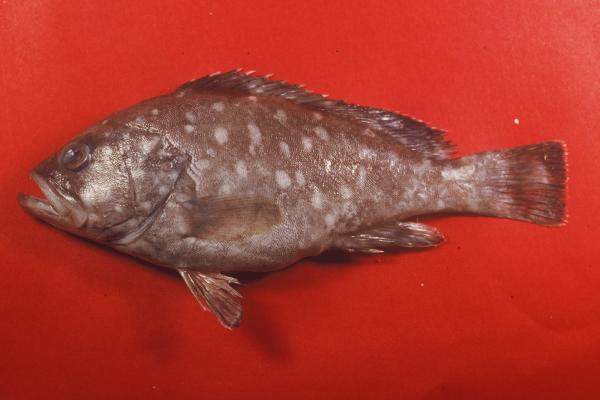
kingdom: Animalia
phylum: Chordata
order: Perciformes
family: Serranidae
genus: Epinephelus
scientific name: Epinephelus multinotatus
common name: Rankin's cod
